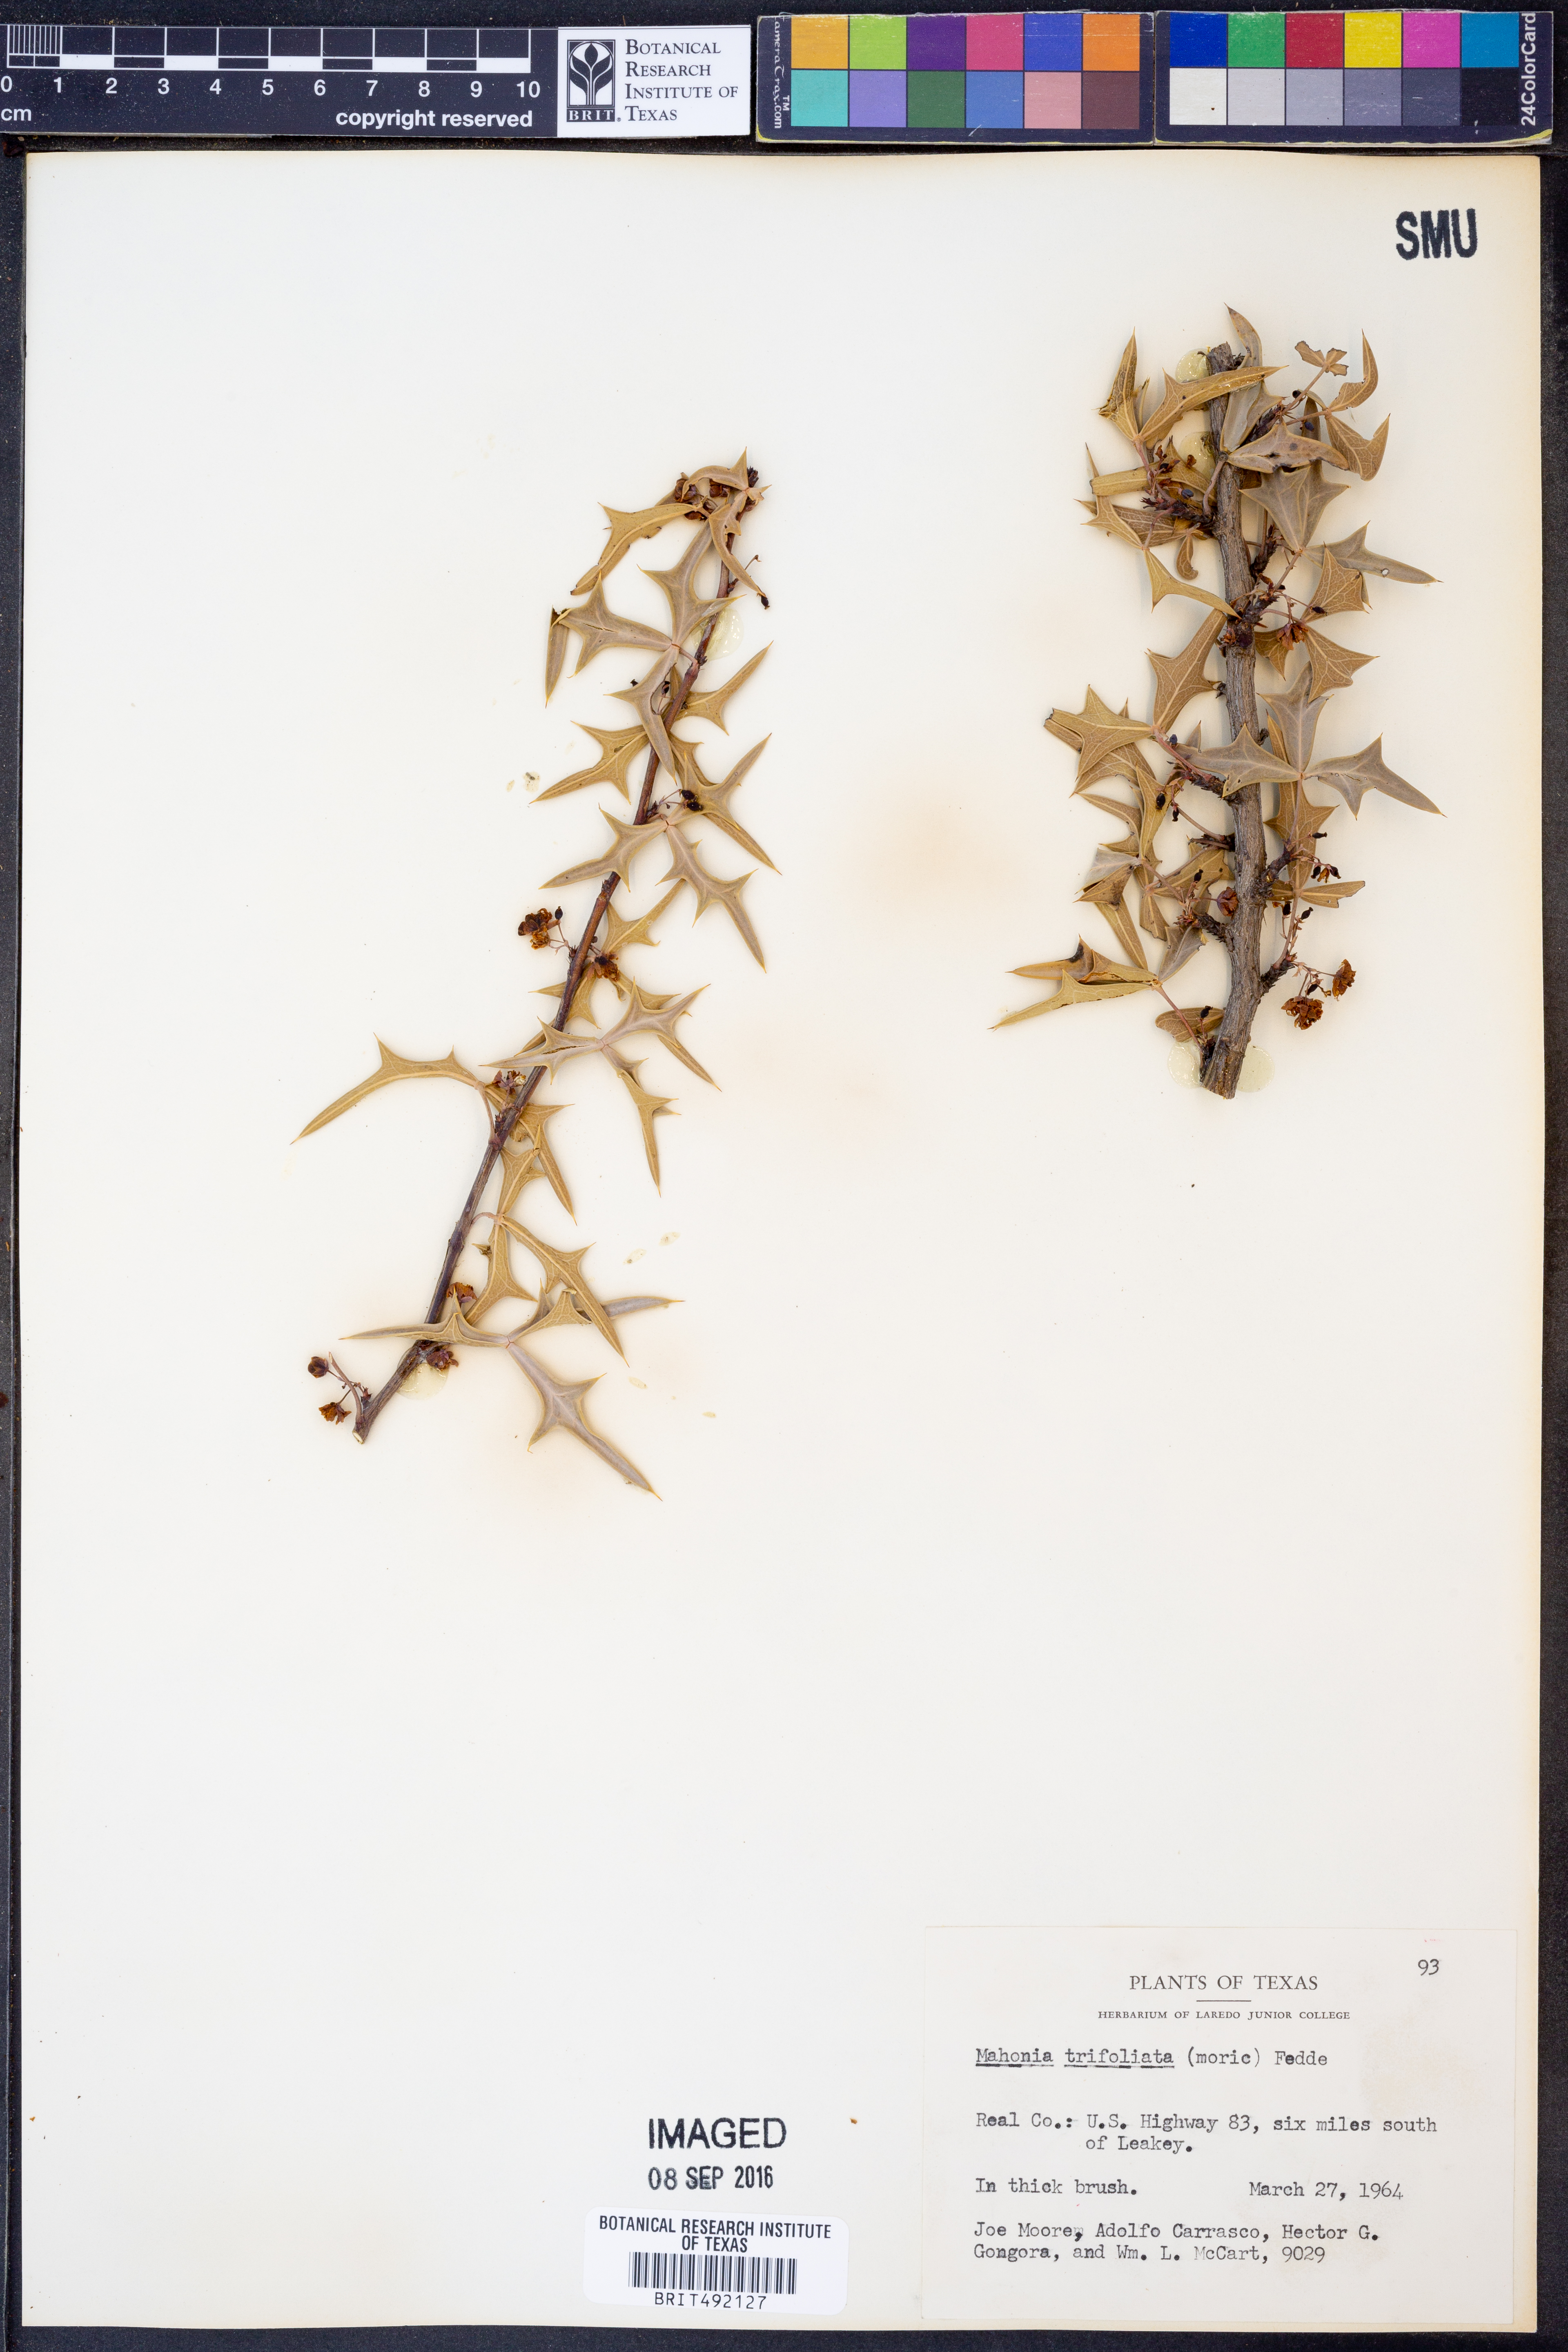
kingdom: Plantae
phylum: Tracheophyta
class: Magnoliopsida
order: Ranunculales
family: Berberidaceae
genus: Mahonia
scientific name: Mahonia trifolia
